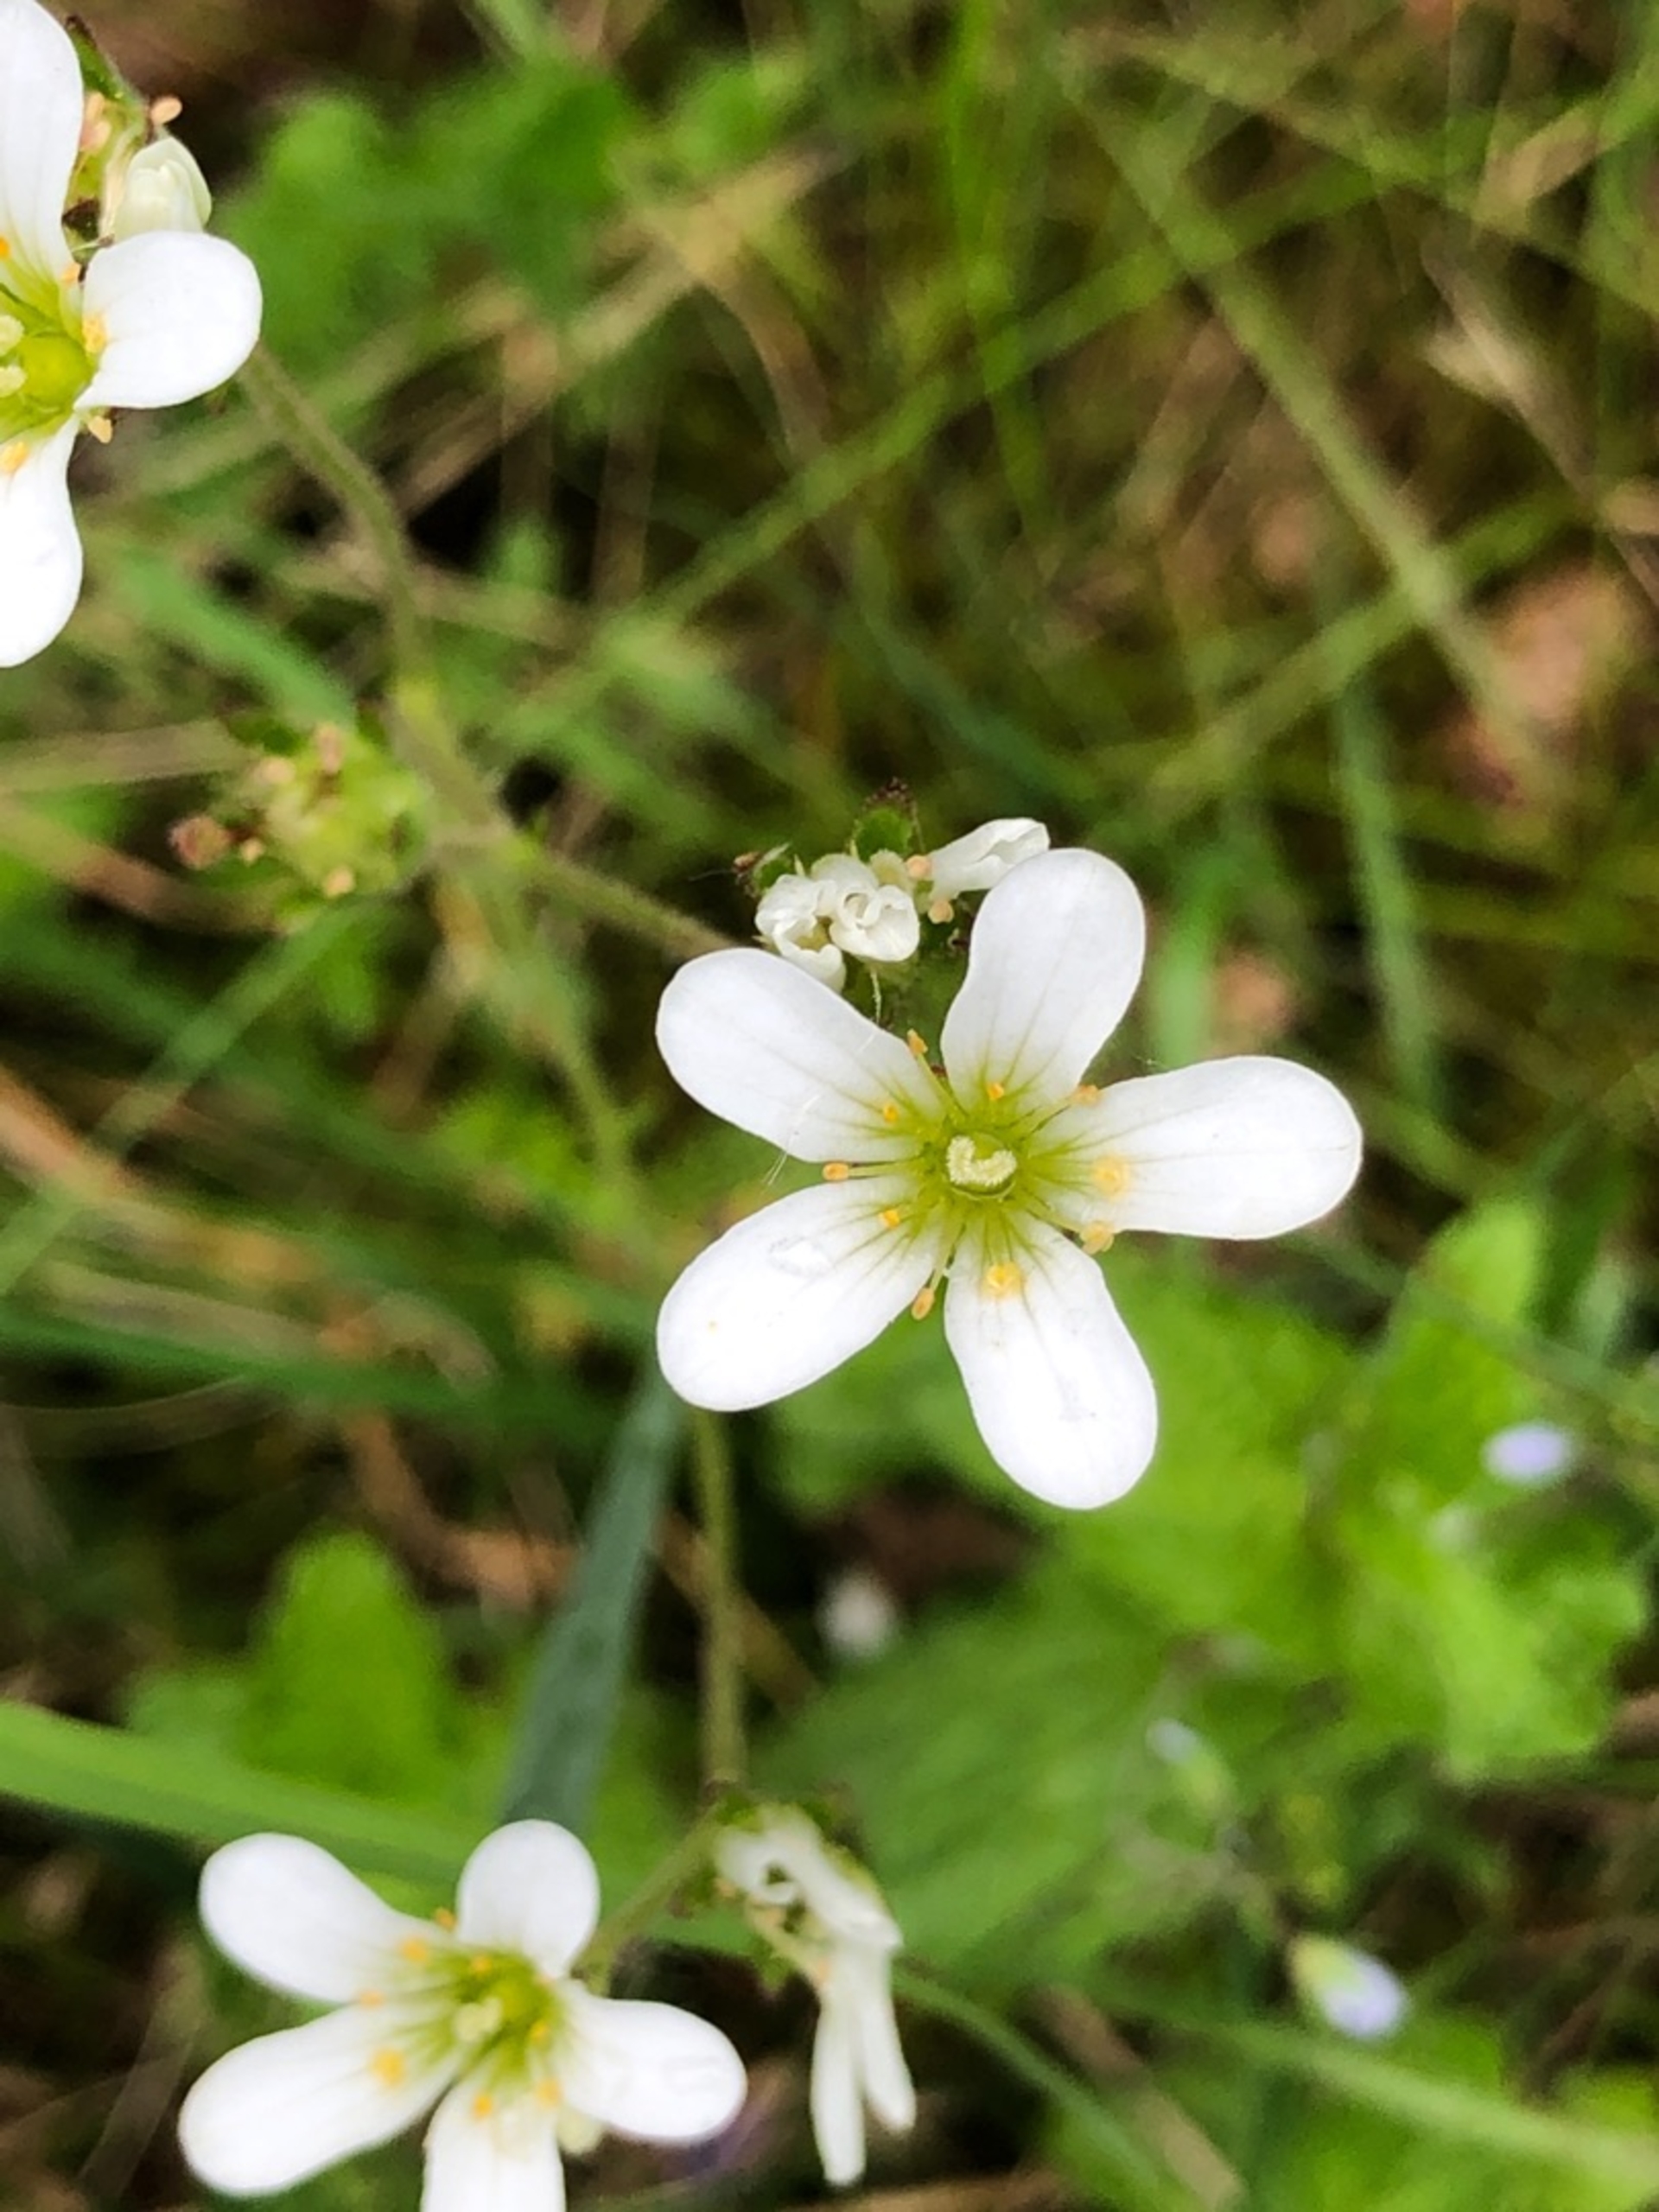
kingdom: Plantae
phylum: Tracheophyta
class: Magnoliopsida
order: Saxifragales
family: Saxifragaceae
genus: Saxifraga
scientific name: Saxifraga granulata
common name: Kornet stenbræk
